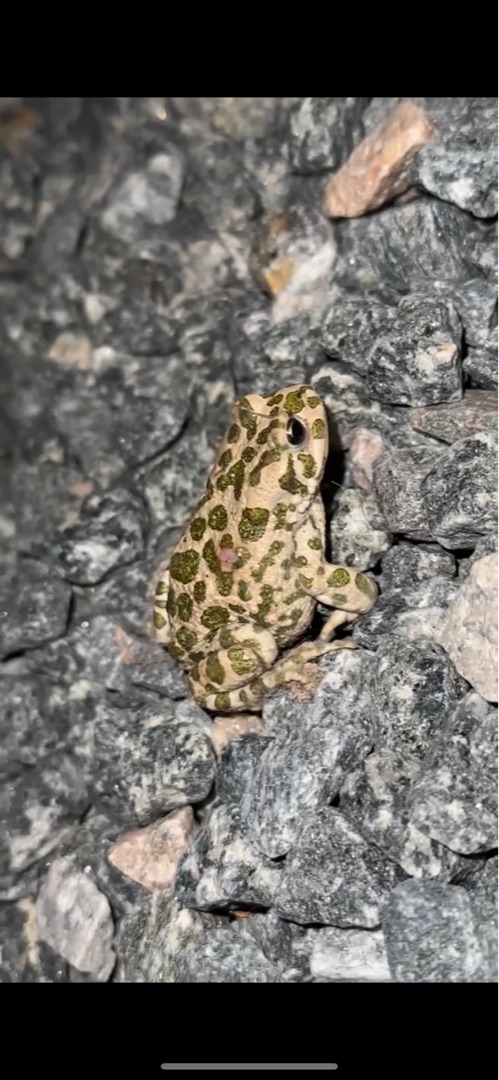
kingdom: Animalia
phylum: Chordata
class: Amphibia
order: Anura
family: Bufonidae
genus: Bufotes
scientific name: Bufotes viridis
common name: Grønbroget tudse
